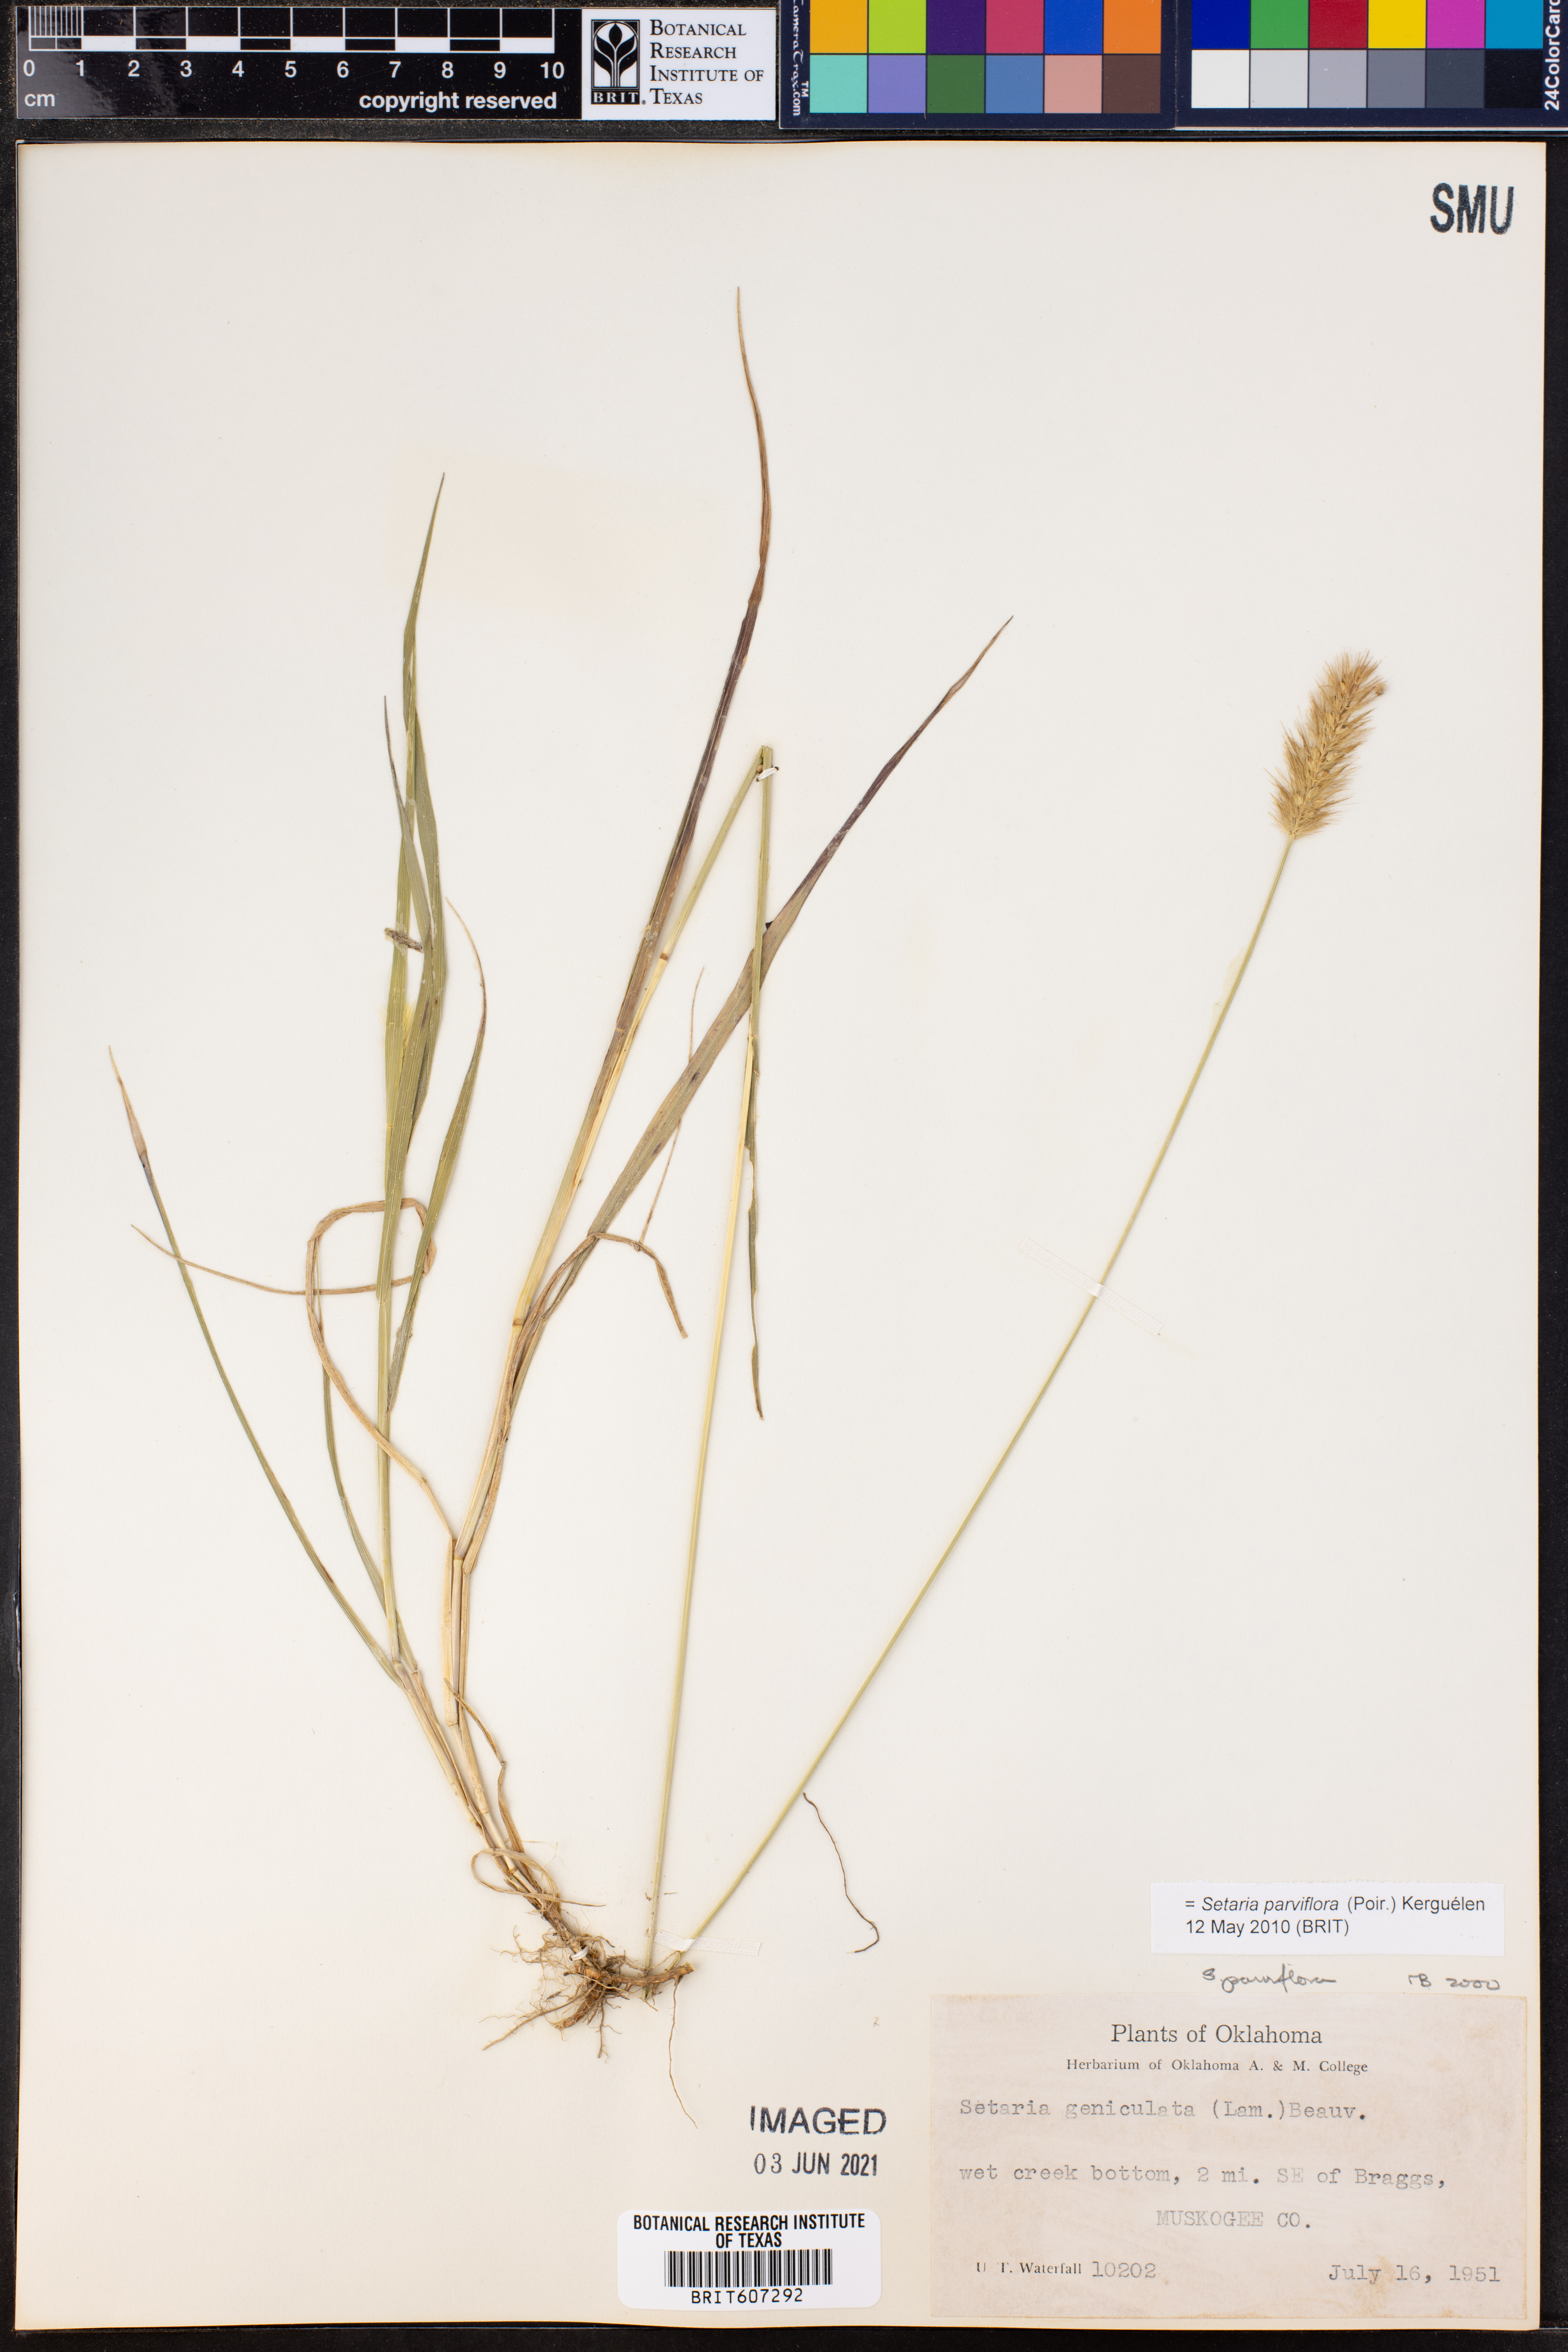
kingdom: Plantae
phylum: Tracheophyta
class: Liliopsida
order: Poales
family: Poaceae
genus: Setaria
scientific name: Setaria parviflora
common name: Knotroot bristle-grass
